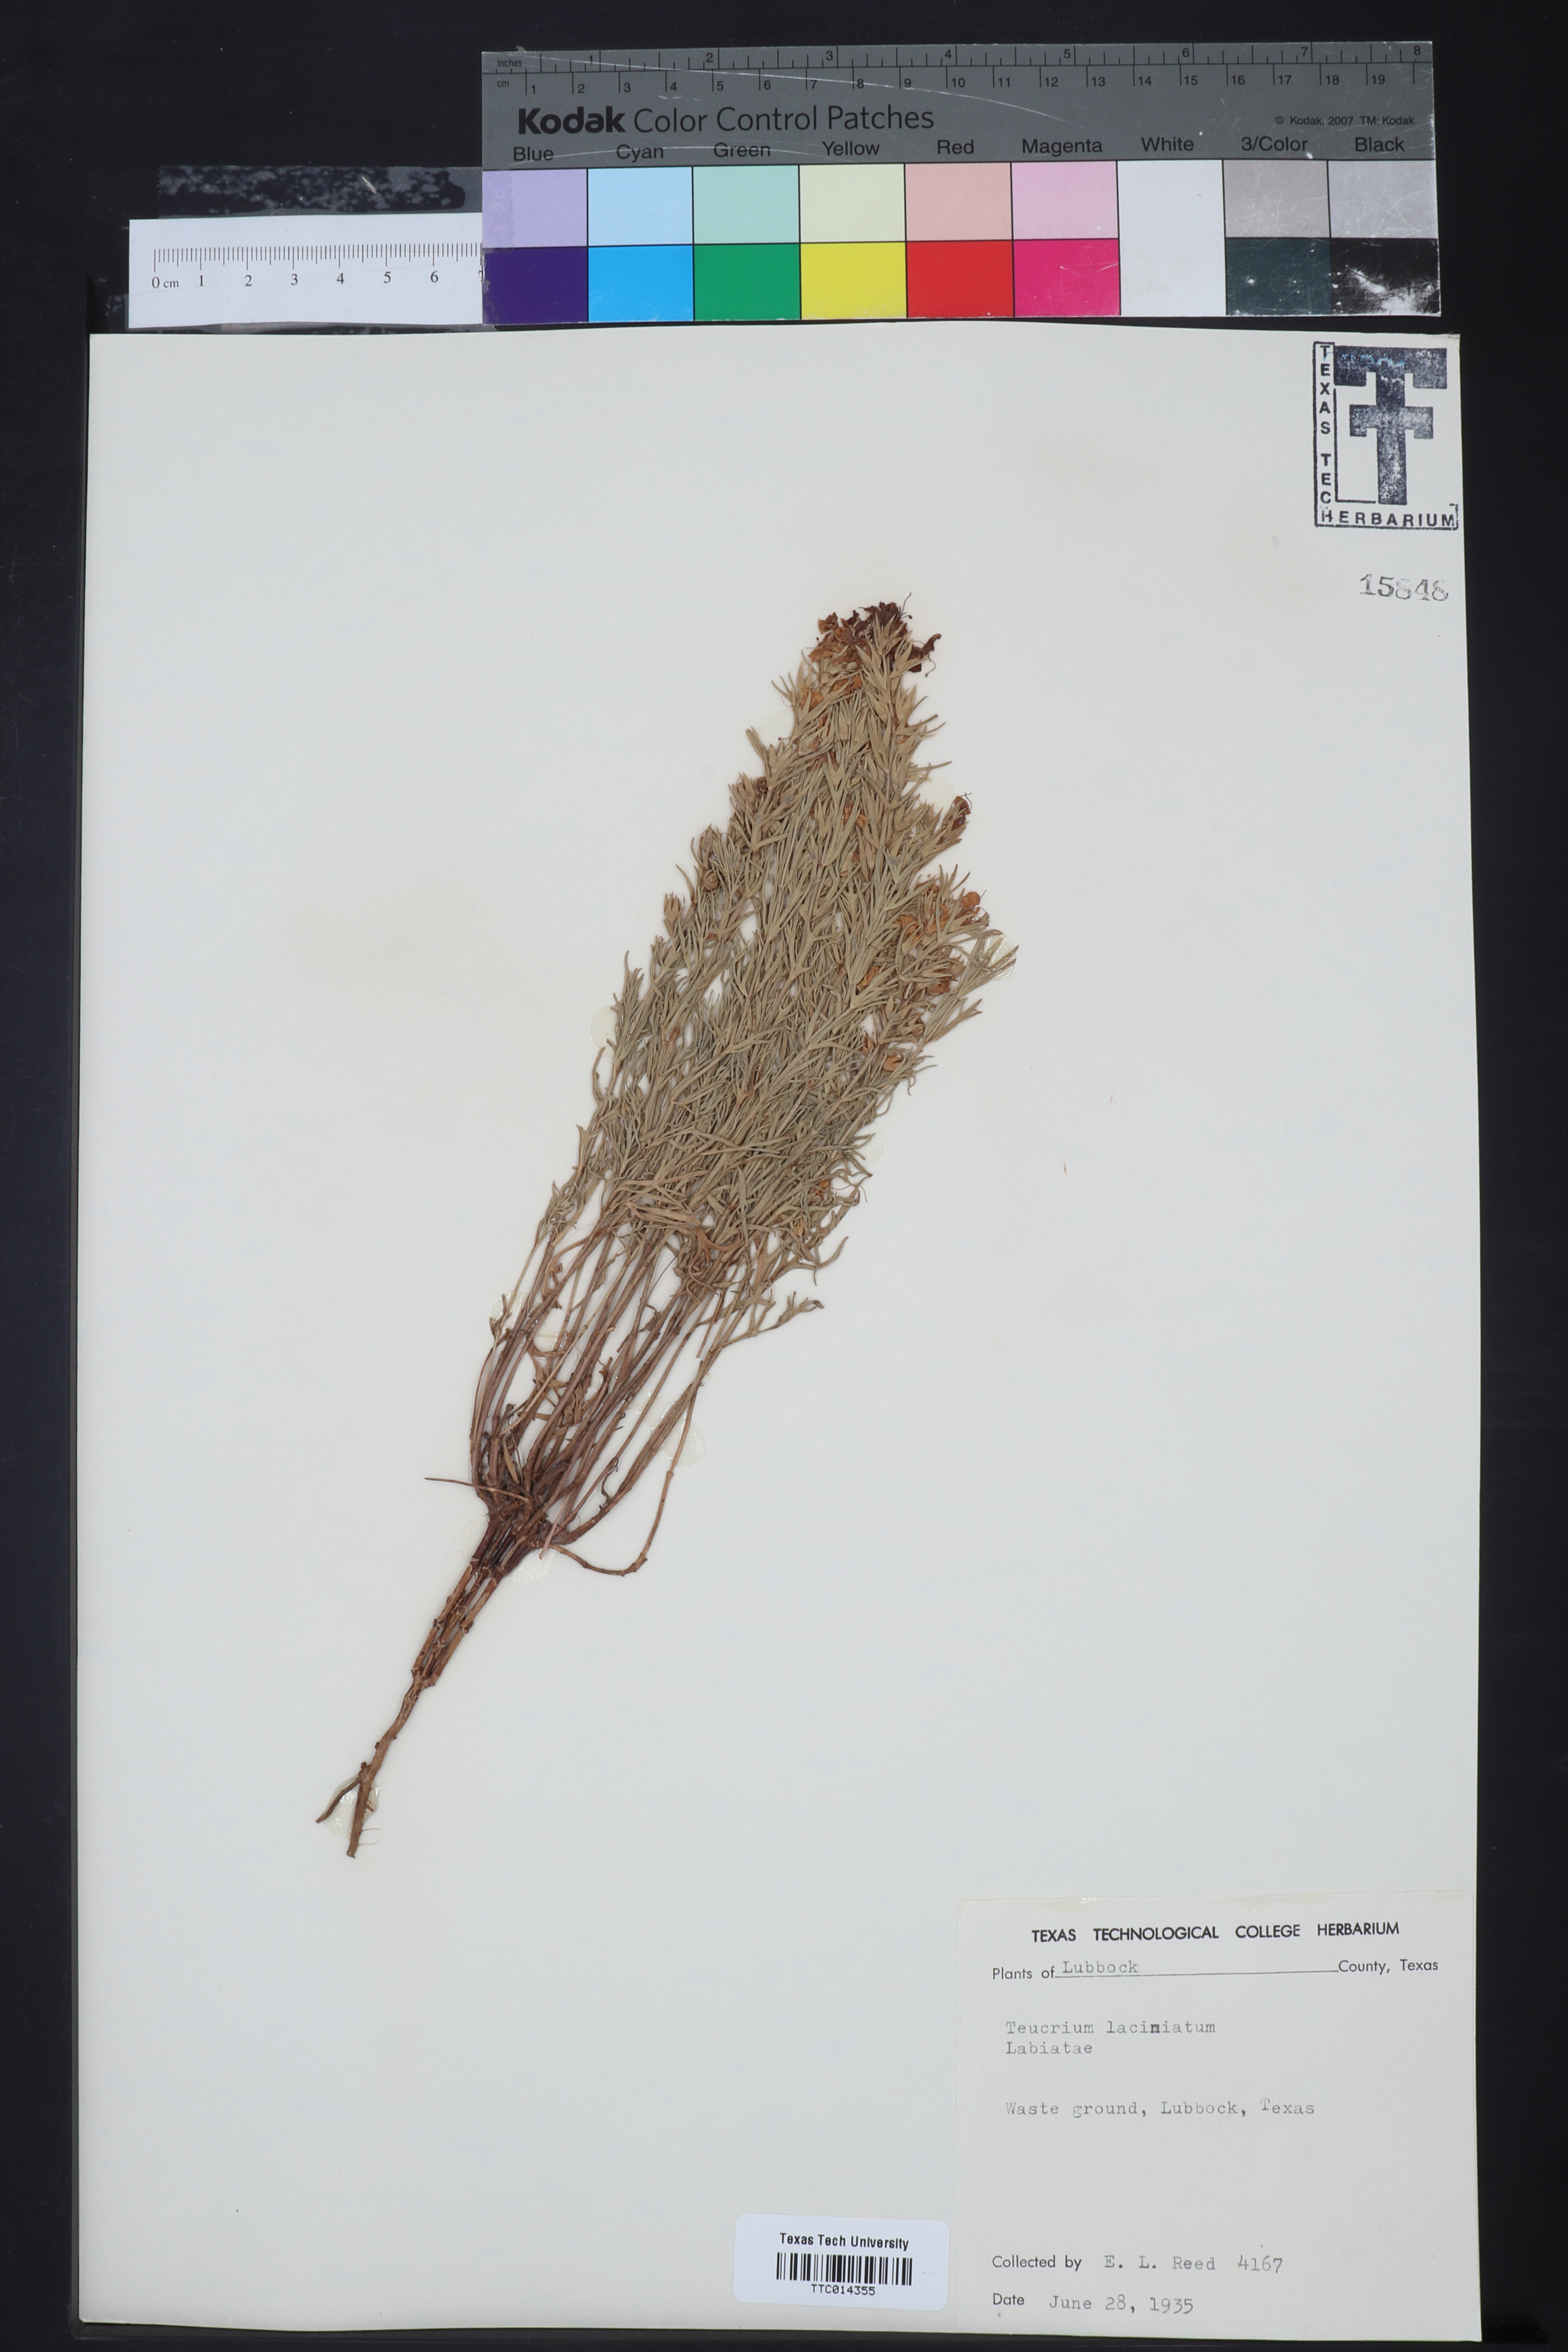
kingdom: Plantae
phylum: Tracheophyta
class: Magnoliopsida
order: Lamiales
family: Lamiaceae
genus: Teucrium
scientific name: Teucrium laciniatum
